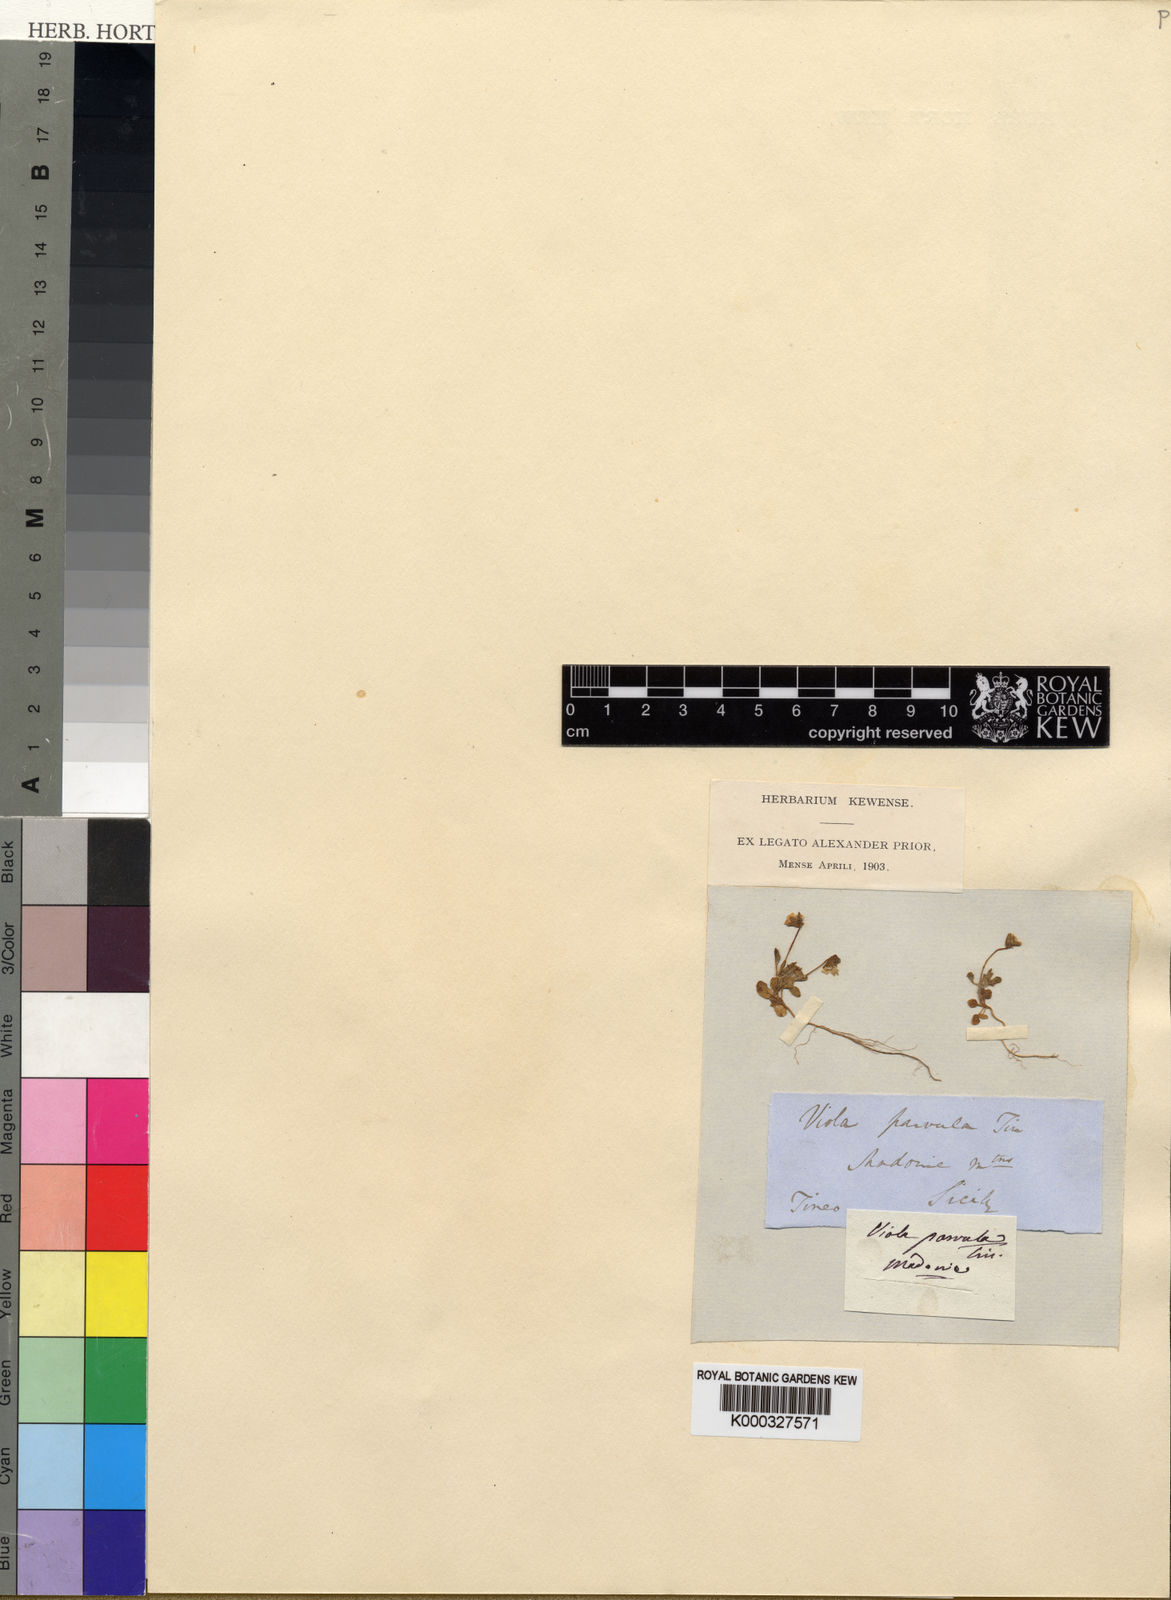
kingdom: Plantae
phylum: Tracheophyta
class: Magnoliopsida
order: Malpighiales
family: Violaceae
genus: Viola
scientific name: Viola parvula
